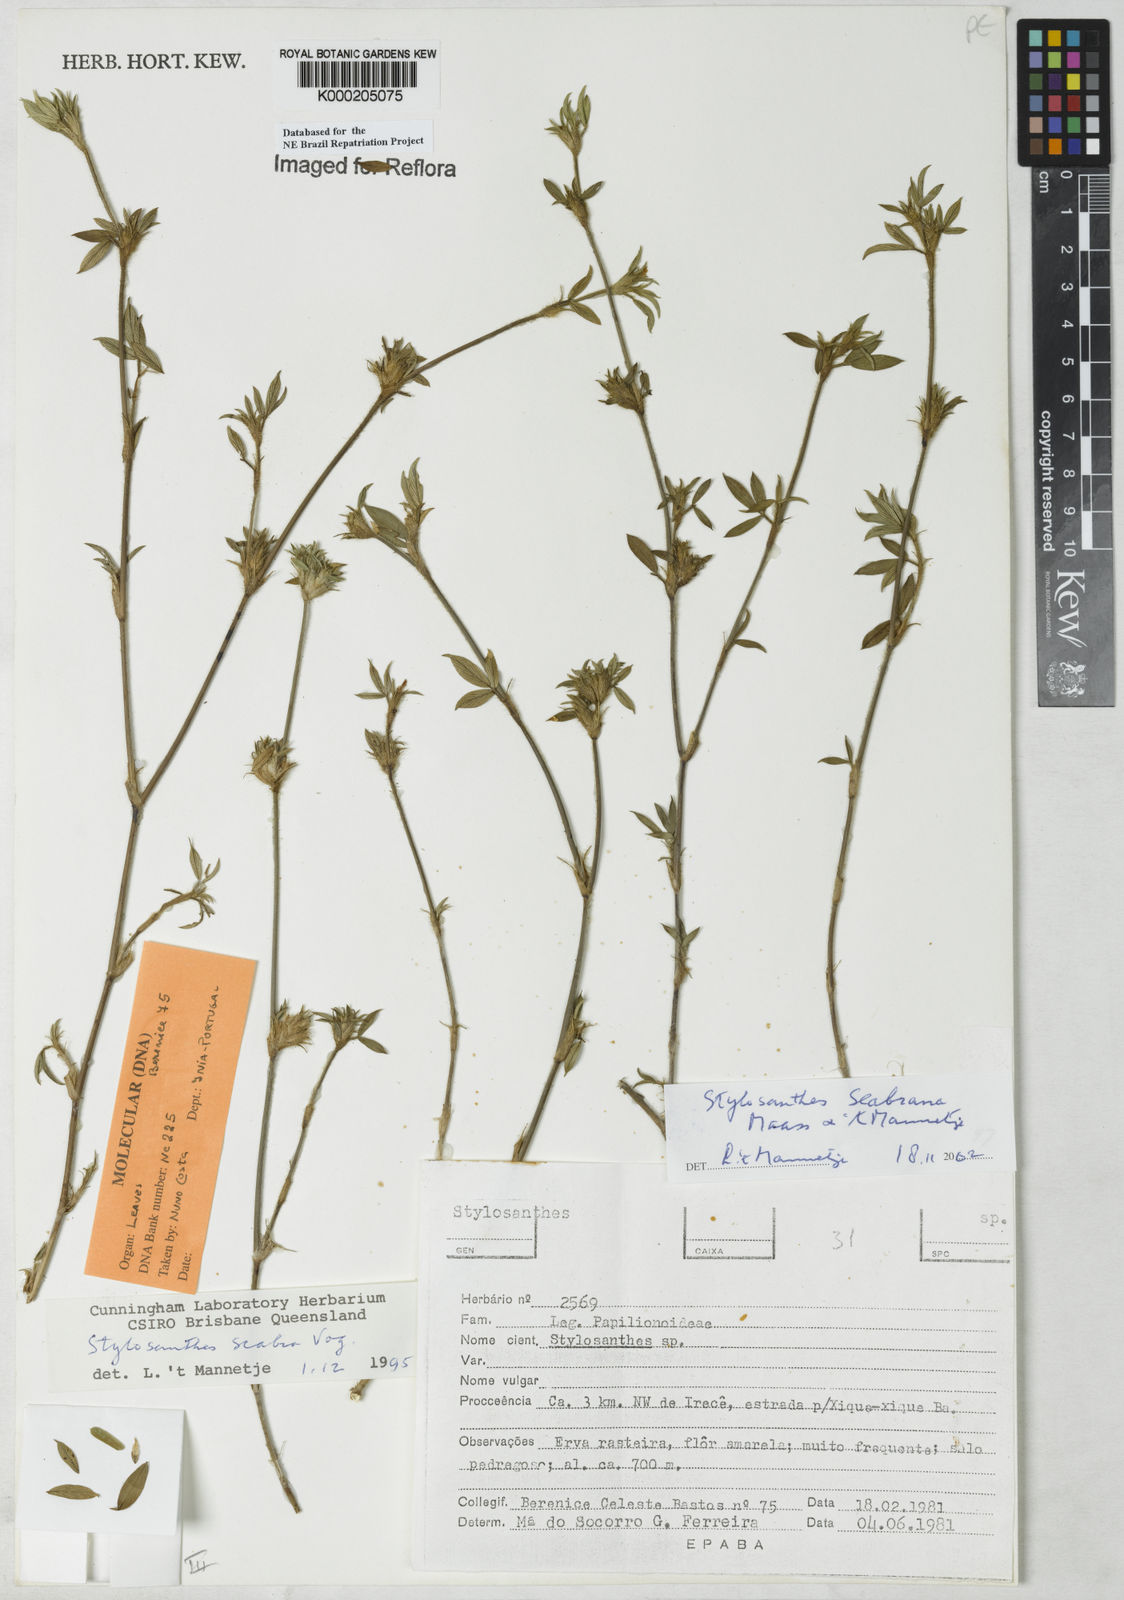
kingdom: Plantae
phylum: Tracheophyta
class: Magnoliopsida
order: Fabales
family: Fabaceae
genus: Stylosanthes
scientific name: Stylosanthes scabra
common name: Pencilflower
